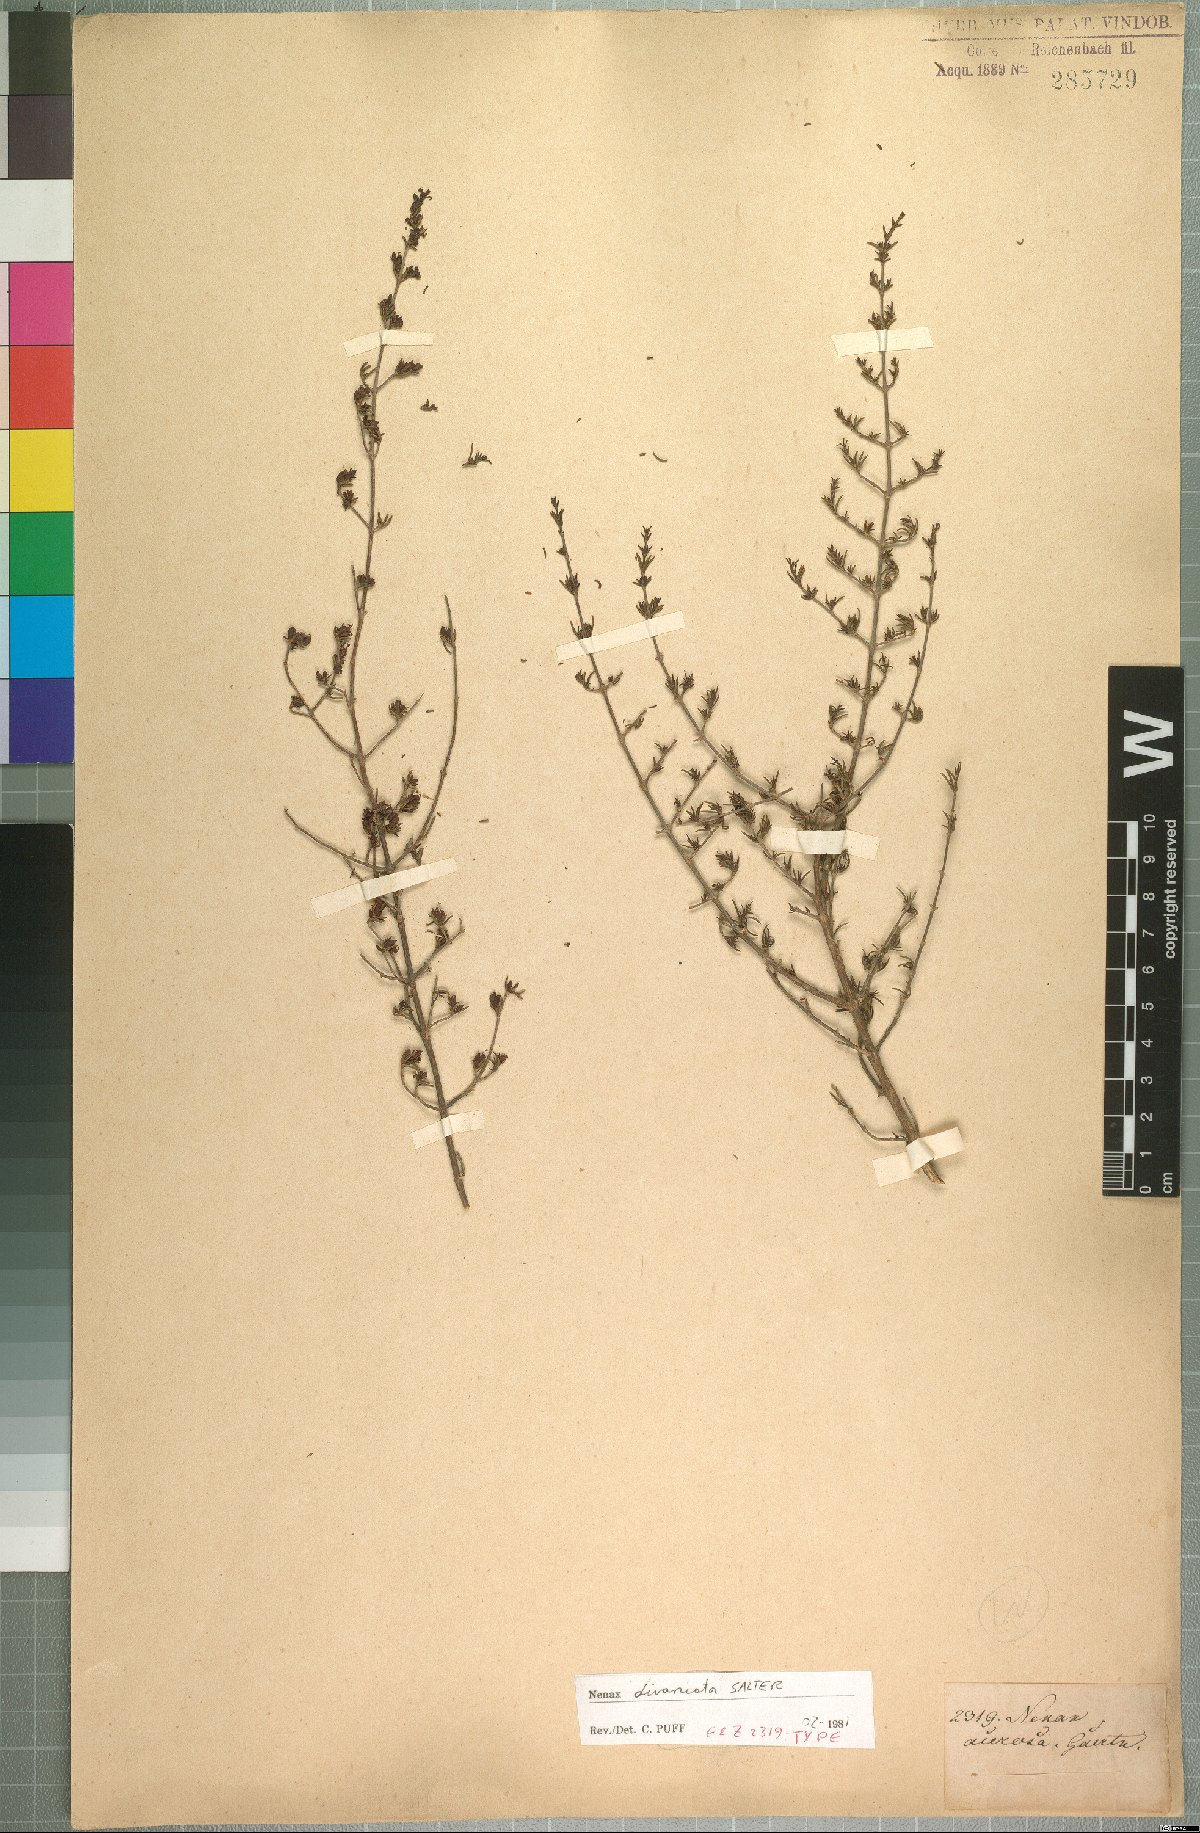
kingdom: Plantae
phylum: Tracheophyta
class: Magnoliopsida
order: Gentianales
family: Rubiaceae
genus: Nenax
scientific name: Nenax divaricata
